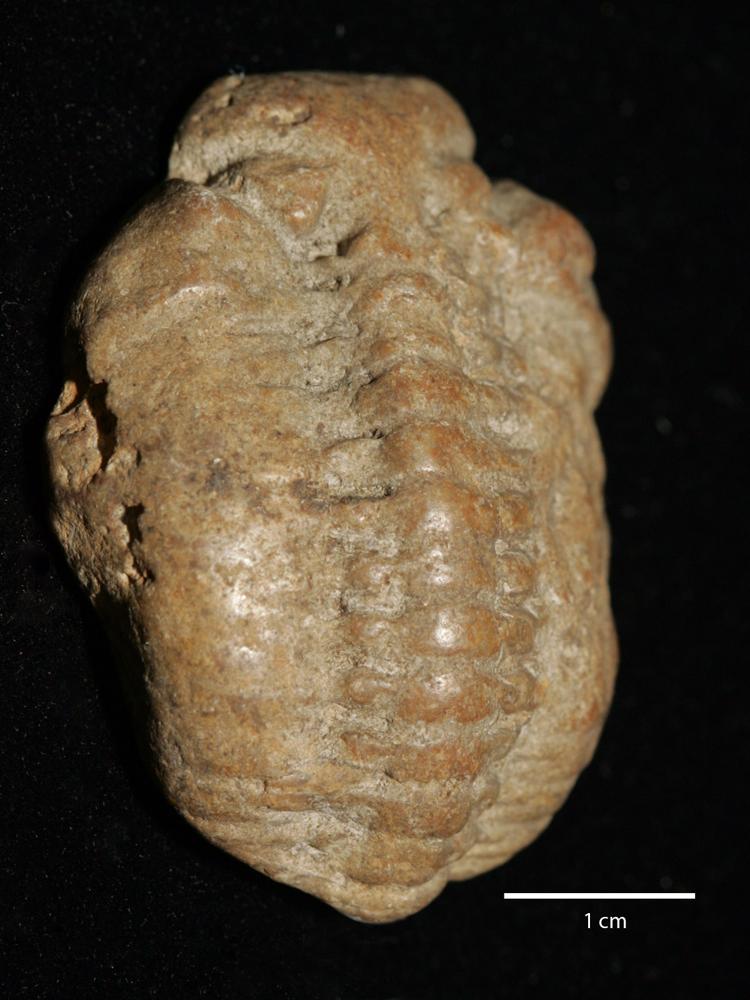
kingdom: Animalia
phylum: Arthropoda
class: Trilobita
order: Phacopida
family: Pterygometopidae
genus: Chasmops
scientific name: Chasmops odini
